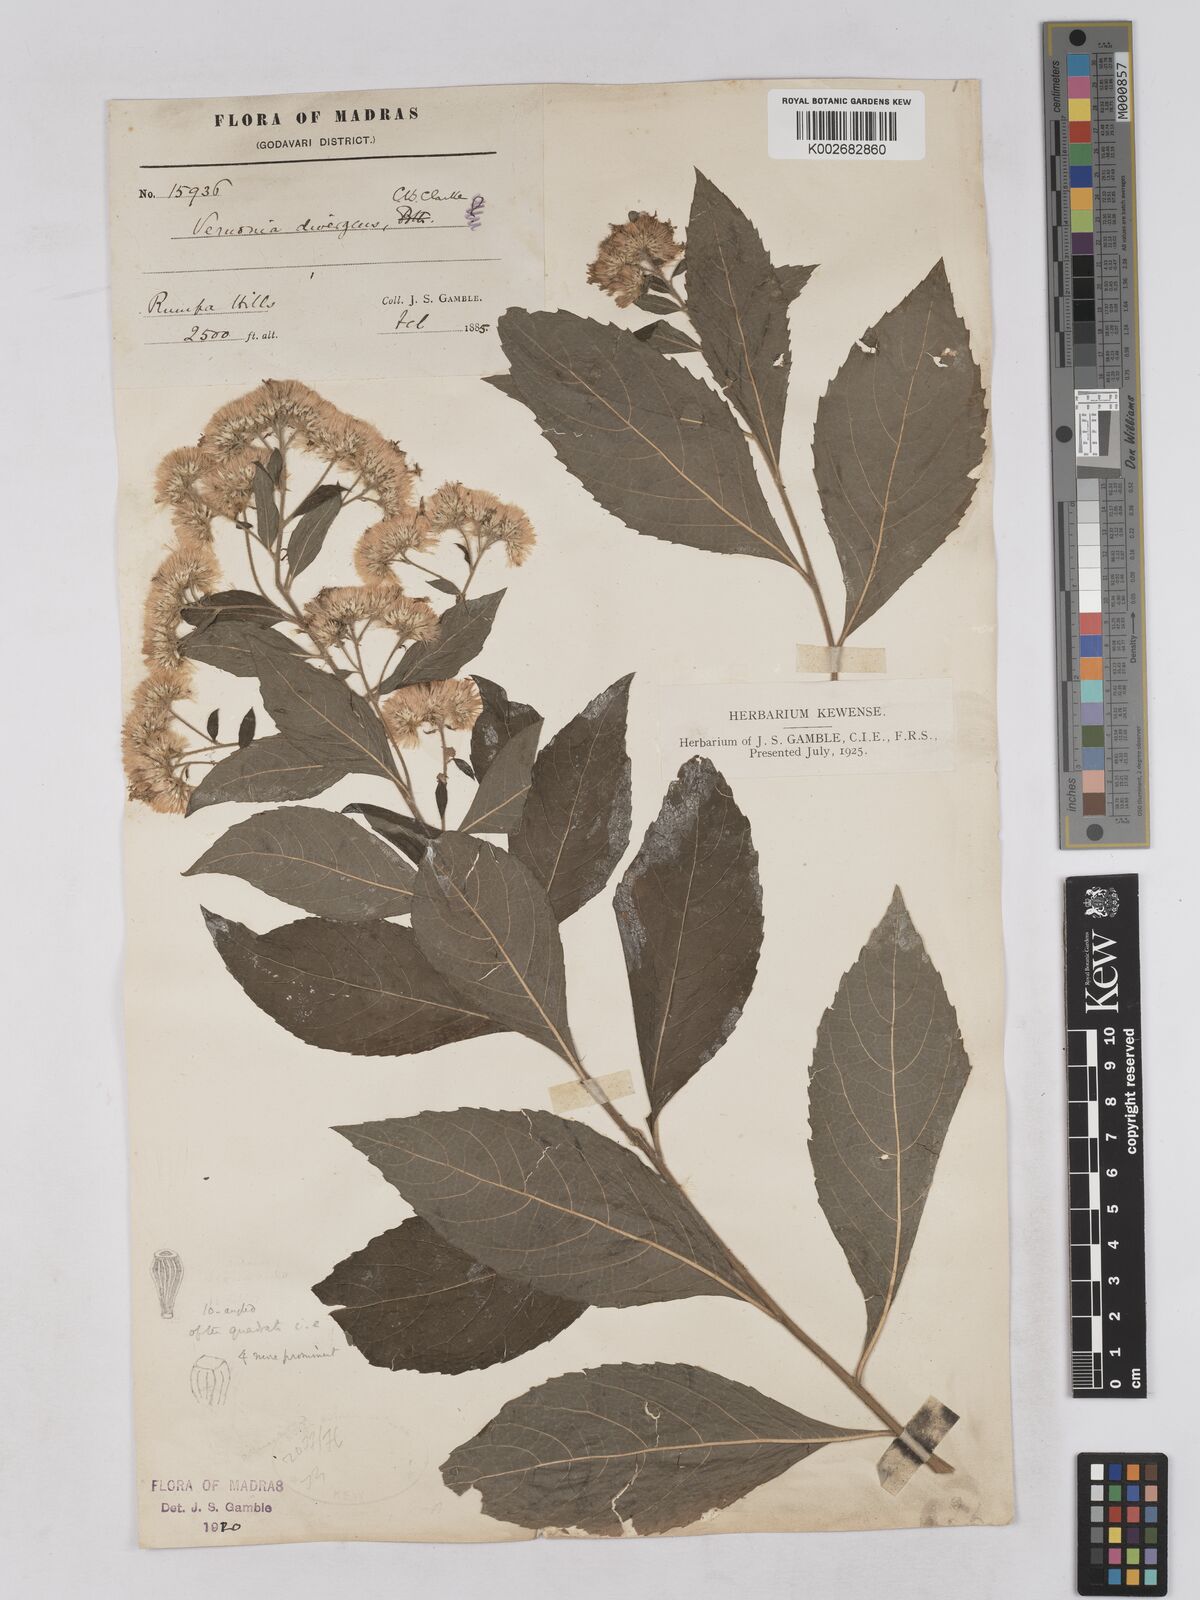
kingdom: Plantae
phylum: Tracheophyta
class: Magnoliopsida
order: Asterales
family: Asteraceae
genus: Acilepis
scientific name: Acilepis divergens
